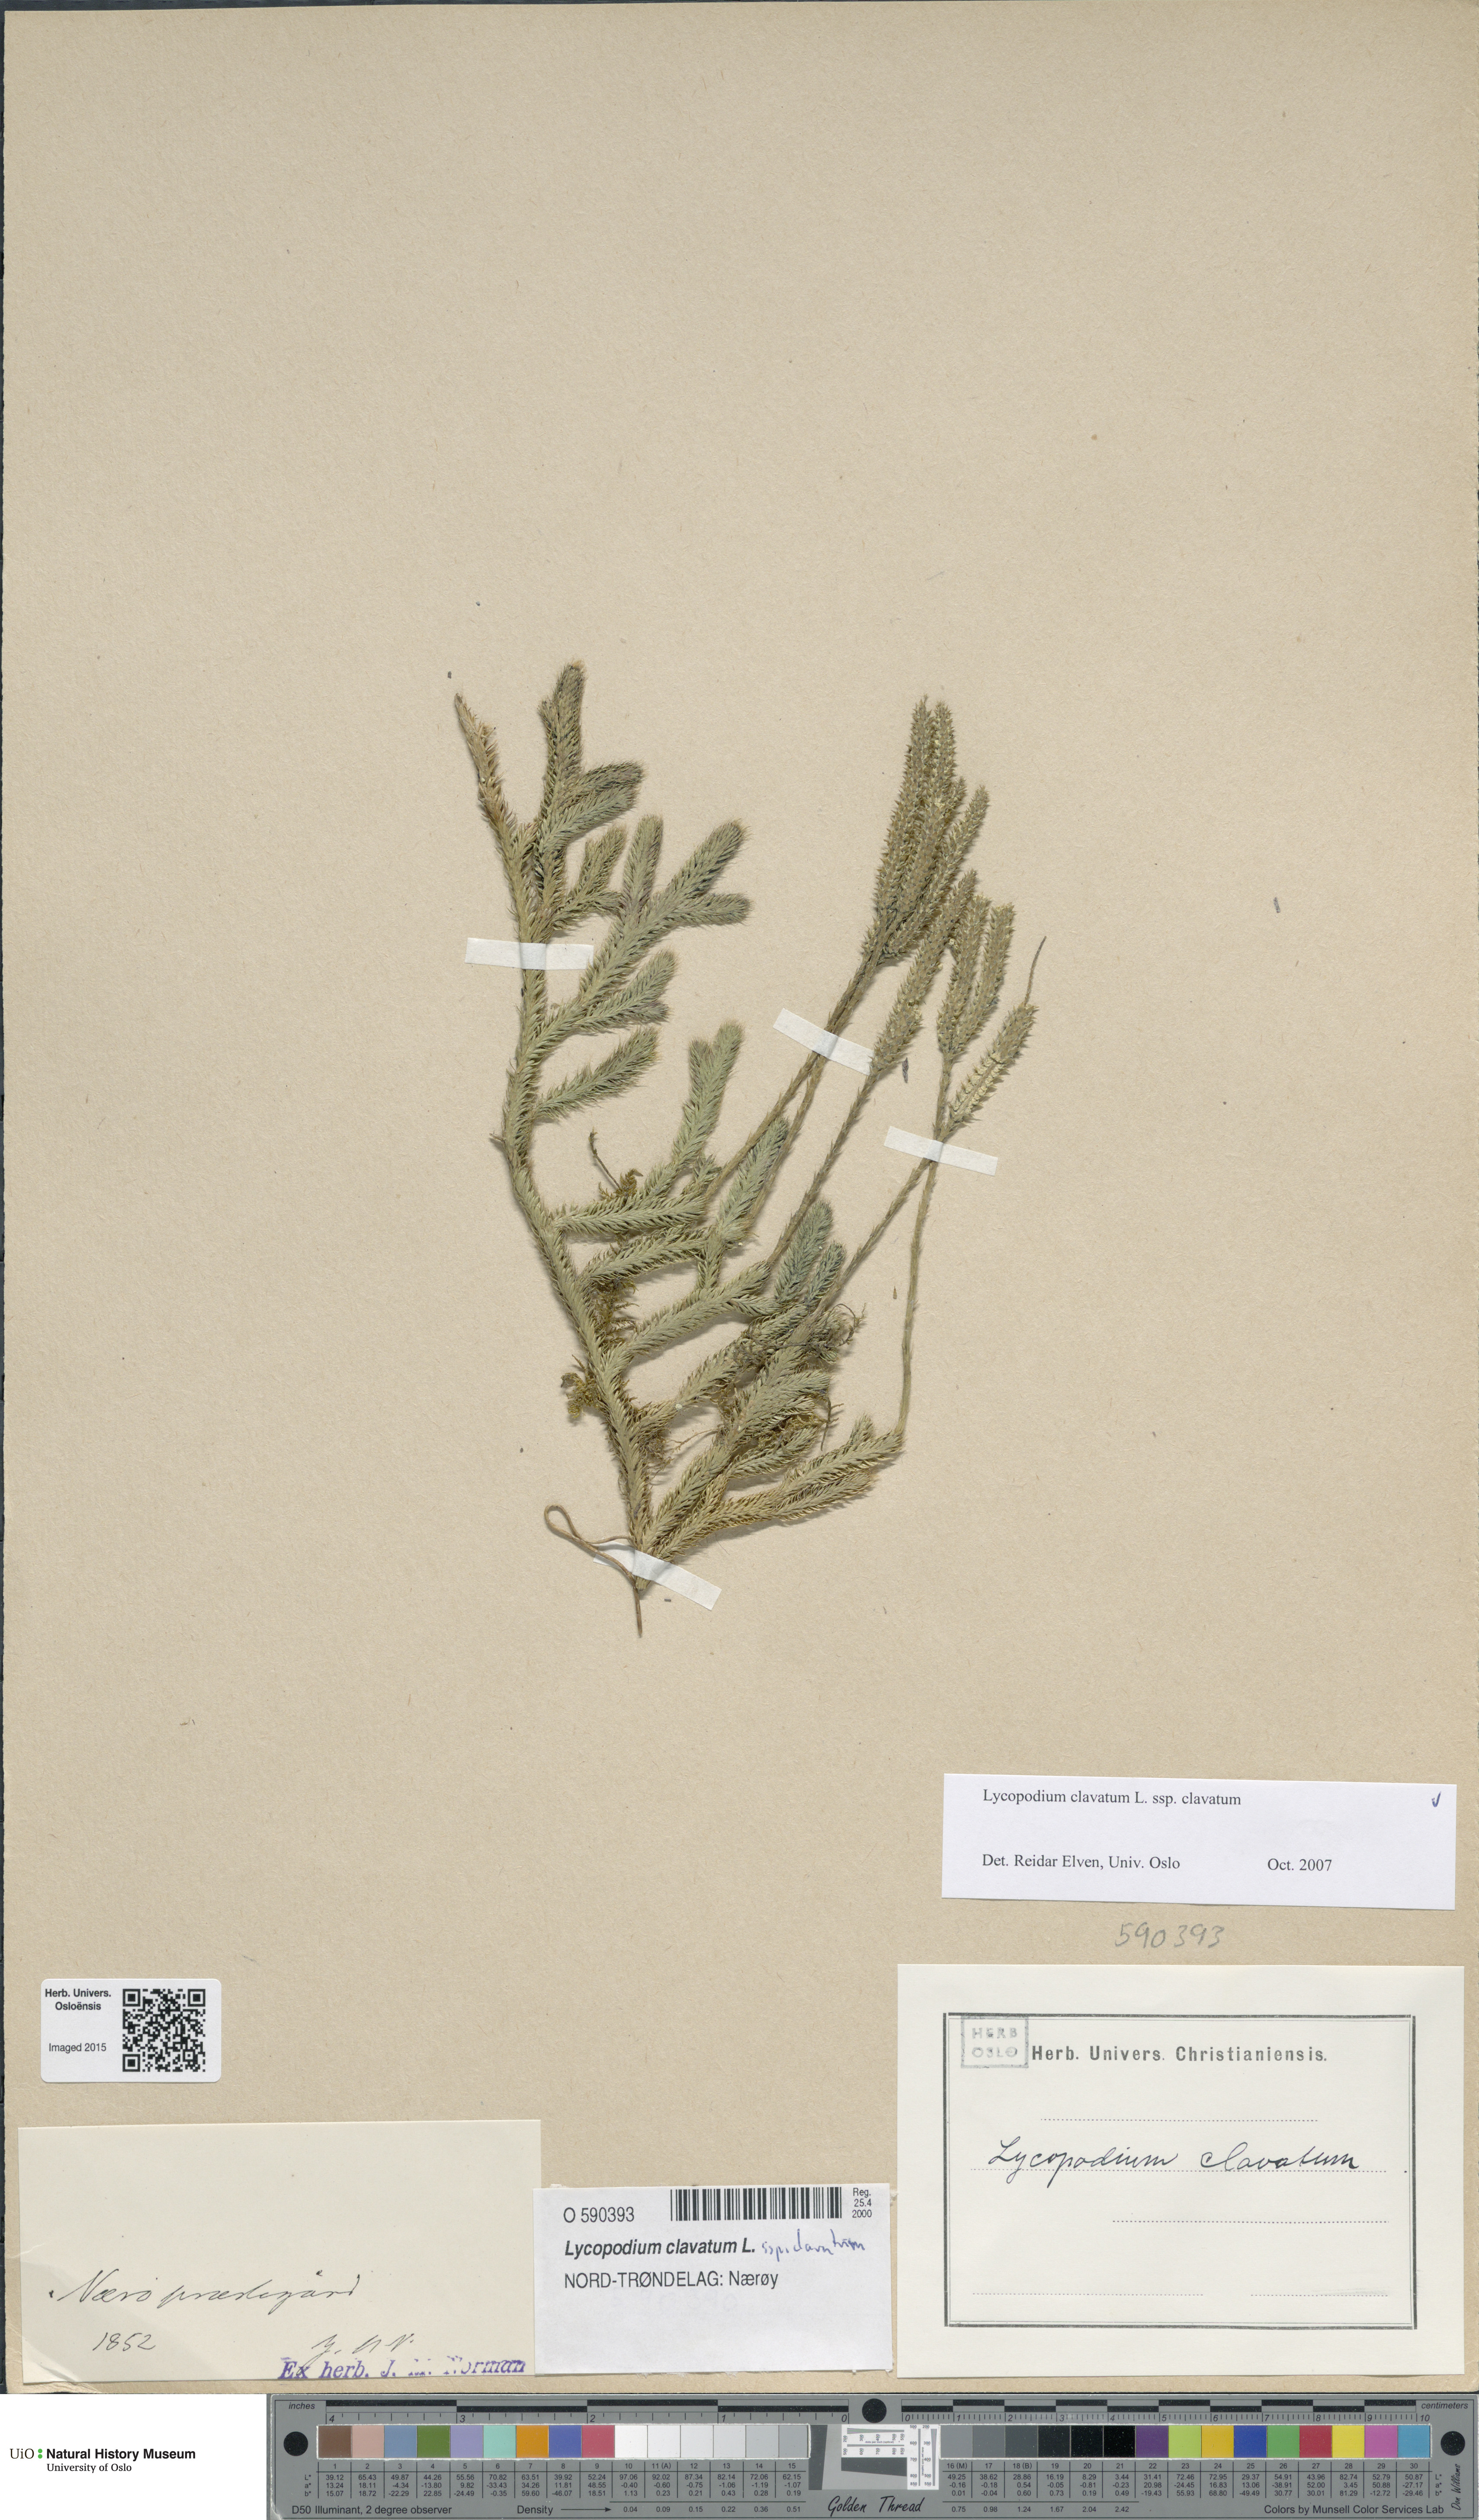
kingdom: Plantae
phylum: Tracheophyta
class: Lycopodiopsida
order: Lycopodiales
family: Lycopodiaceae
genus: Lycopodium
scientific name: Lycopodium clavatum
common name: Stag's-horn clubmoss
